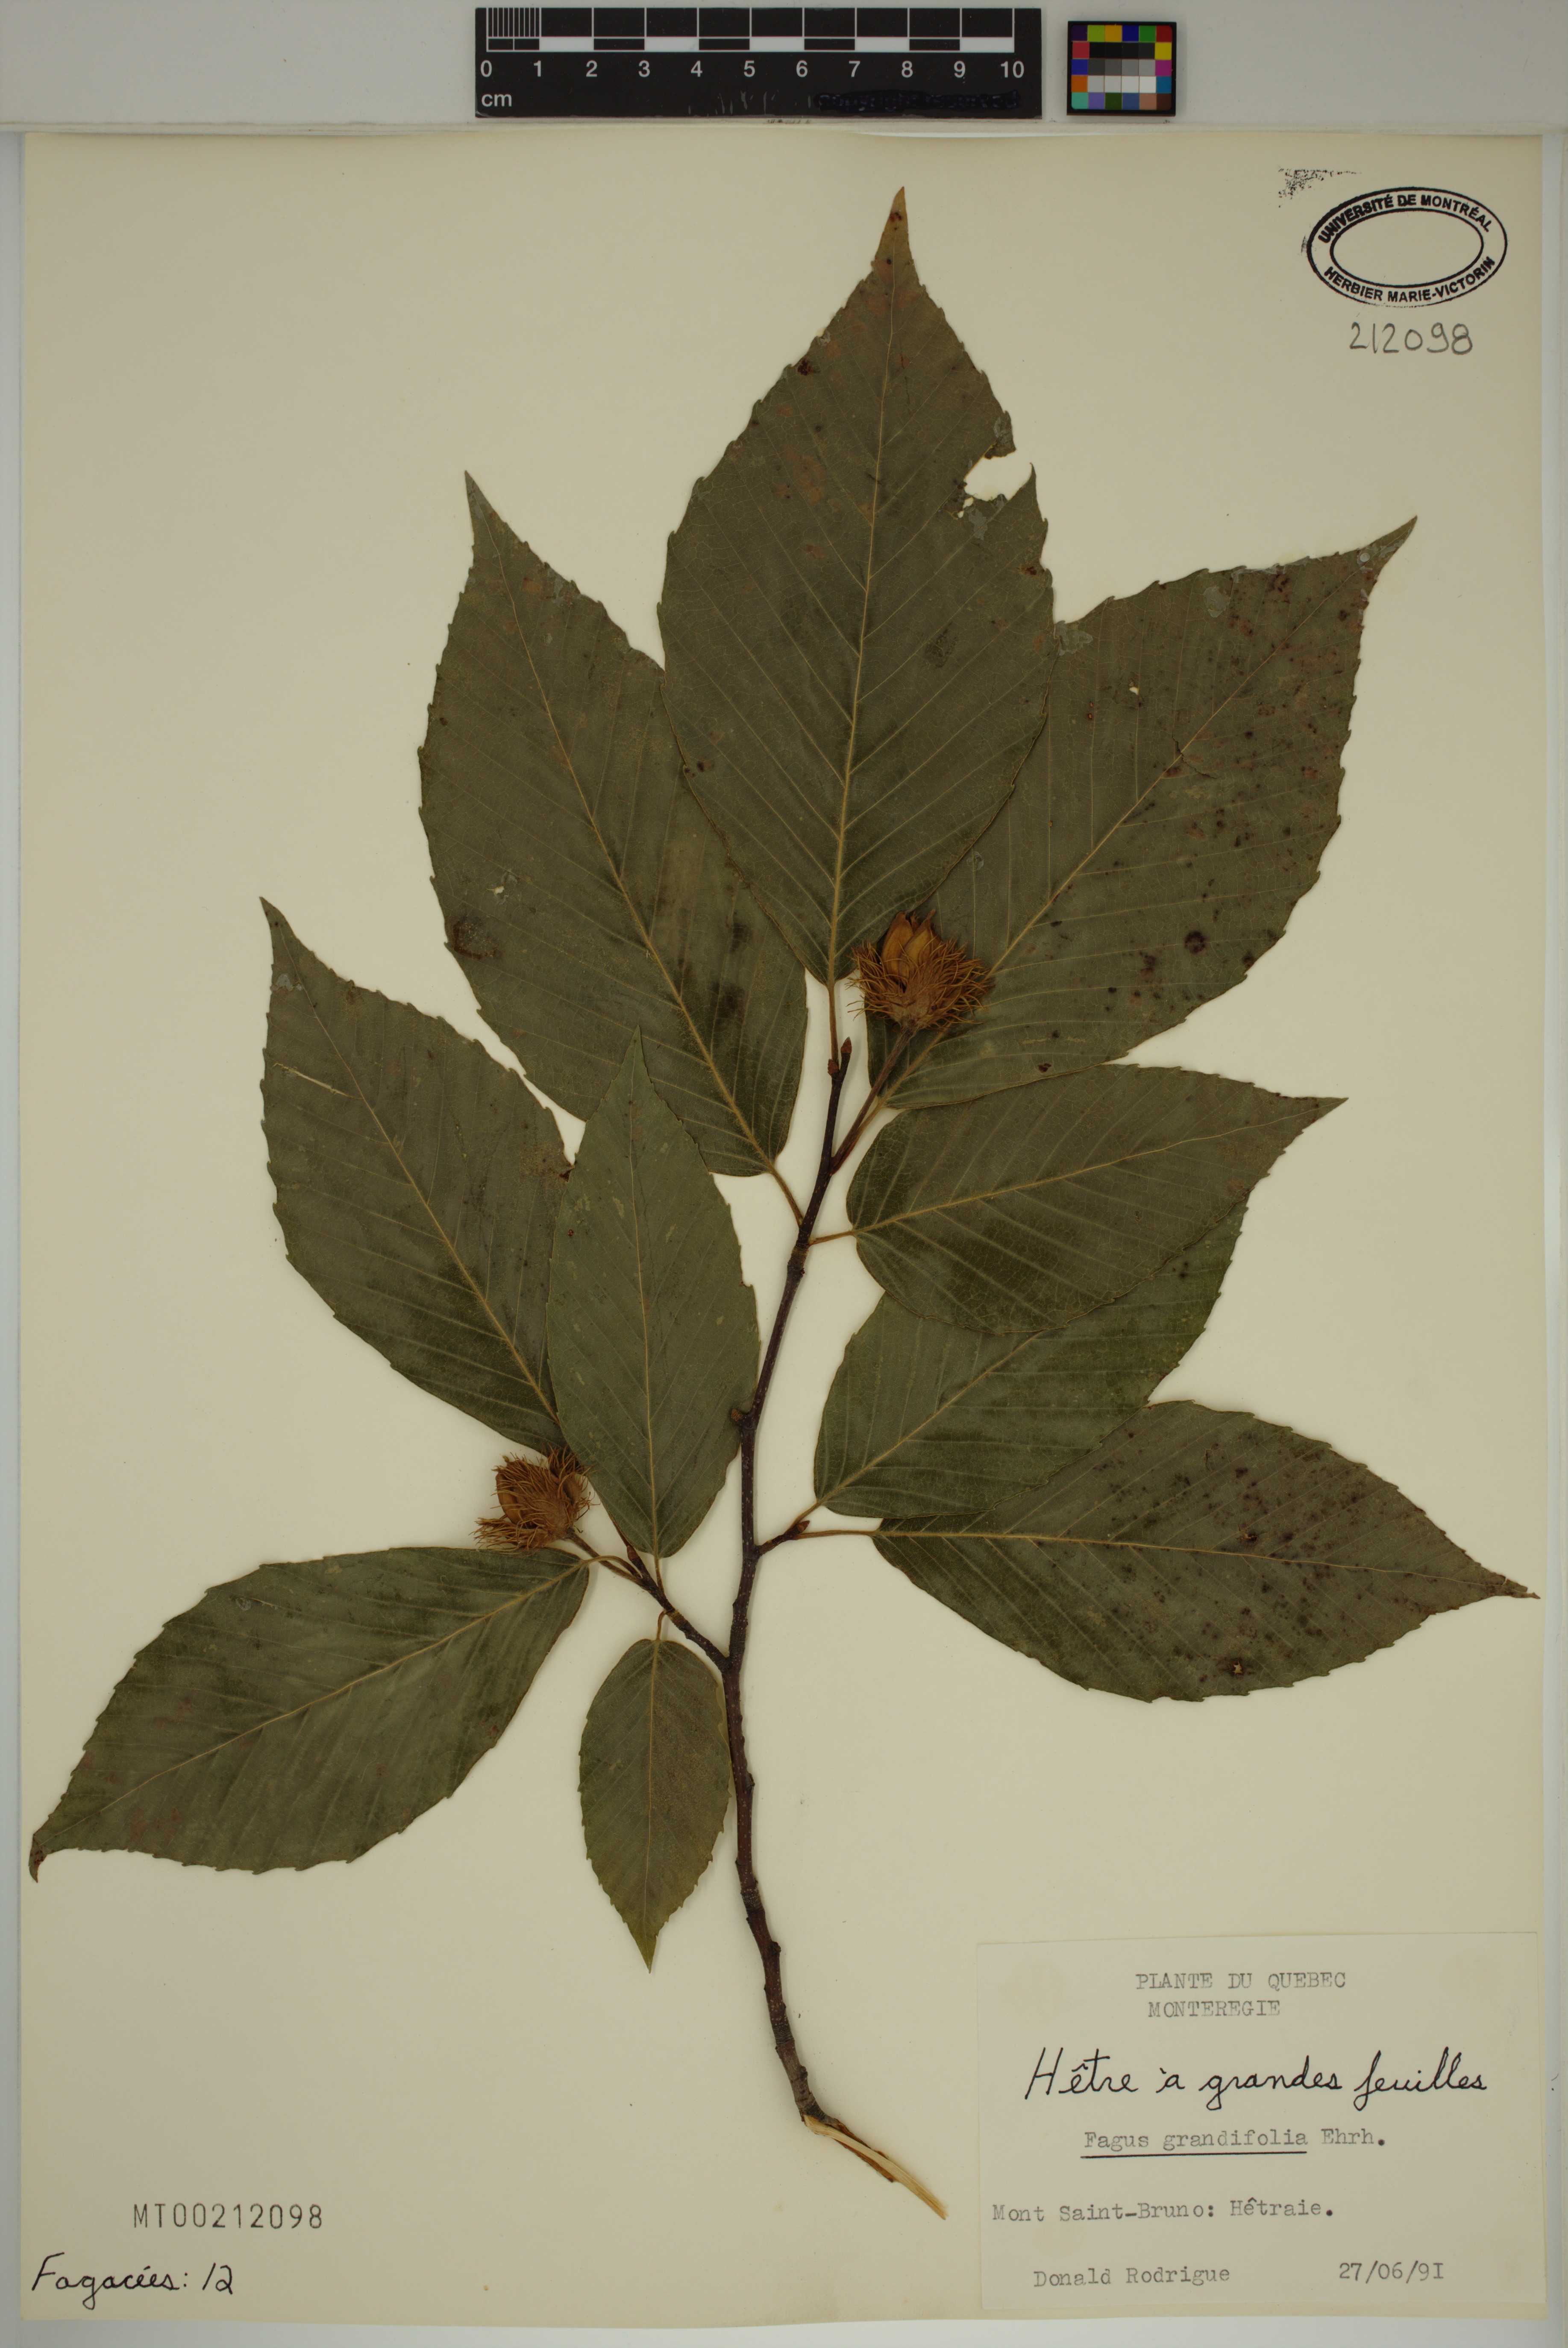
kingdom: Plantae
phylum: Tracheophyta
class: Magnoliopsida
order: Fagales
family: Fagaceae
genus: Fagus
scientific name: Fagus grandifolia
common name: American beech
